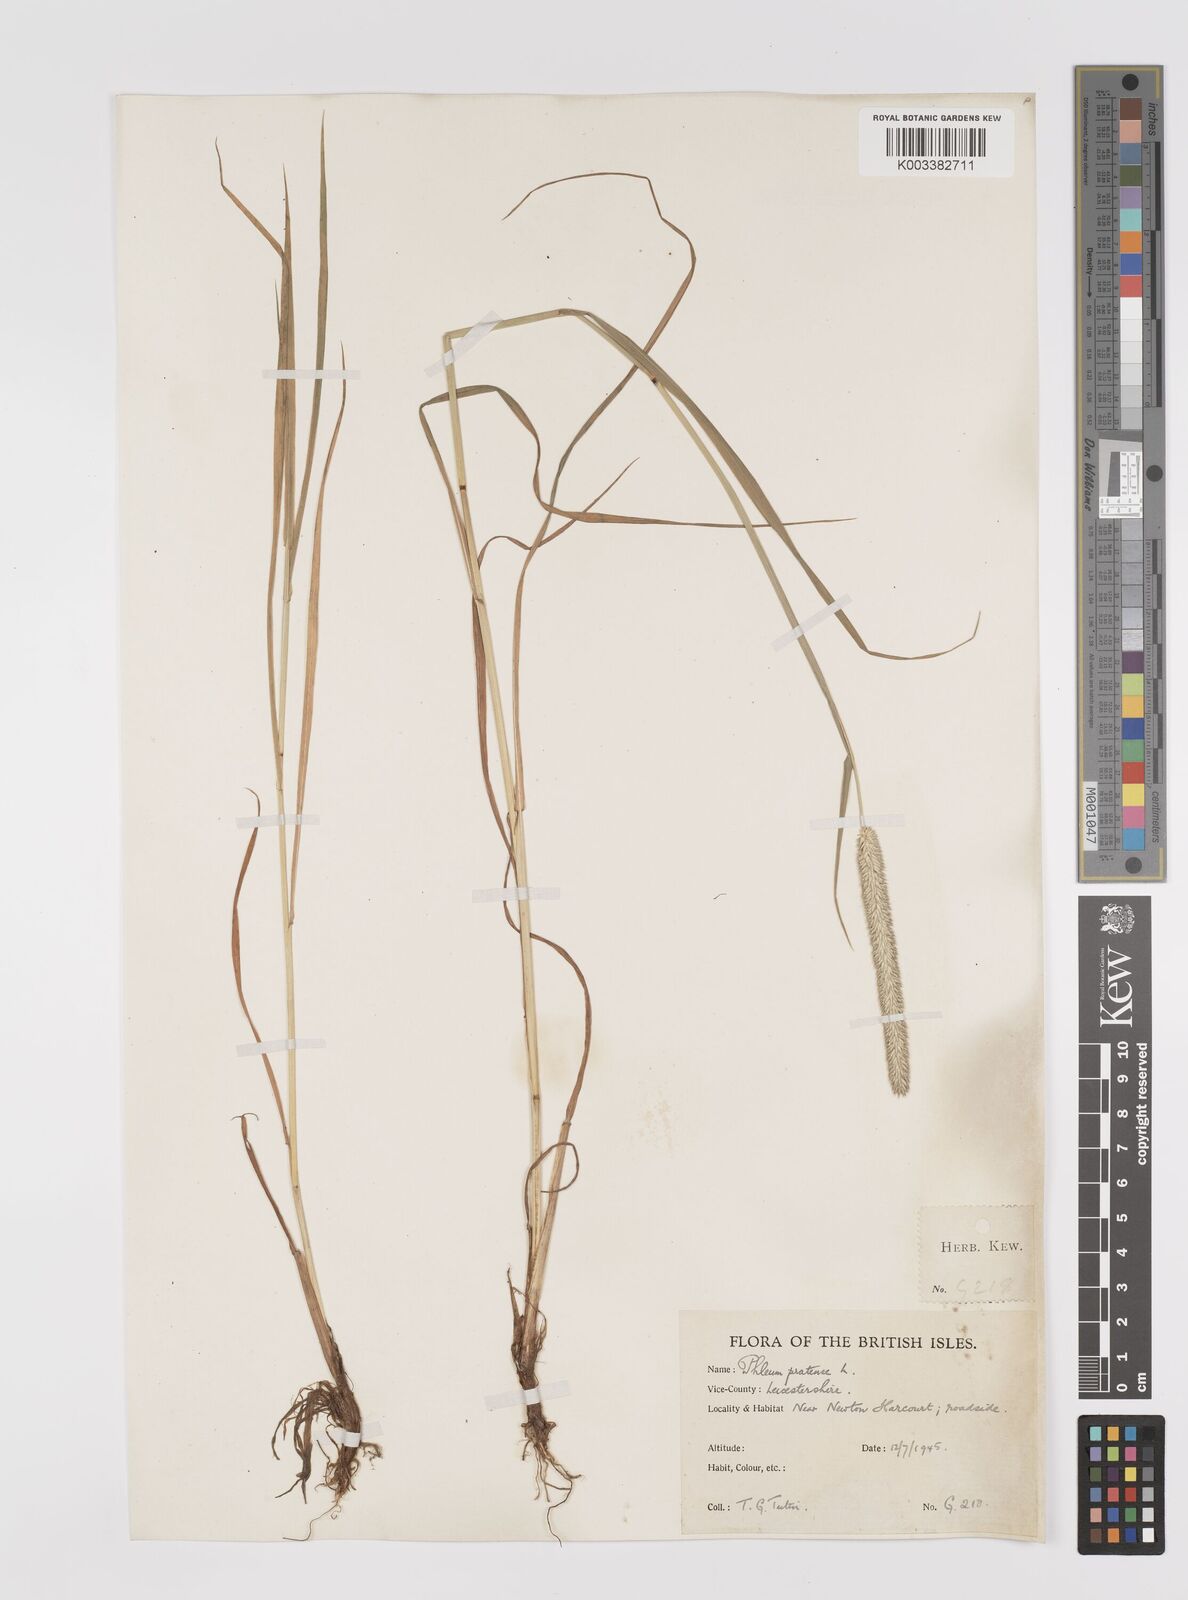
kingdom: Plantae
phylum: Tracheophyta
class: Liliopsida
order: Poales
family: Poaceae
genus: Phleum
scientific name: Phleum pratense
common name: Timothy grass
